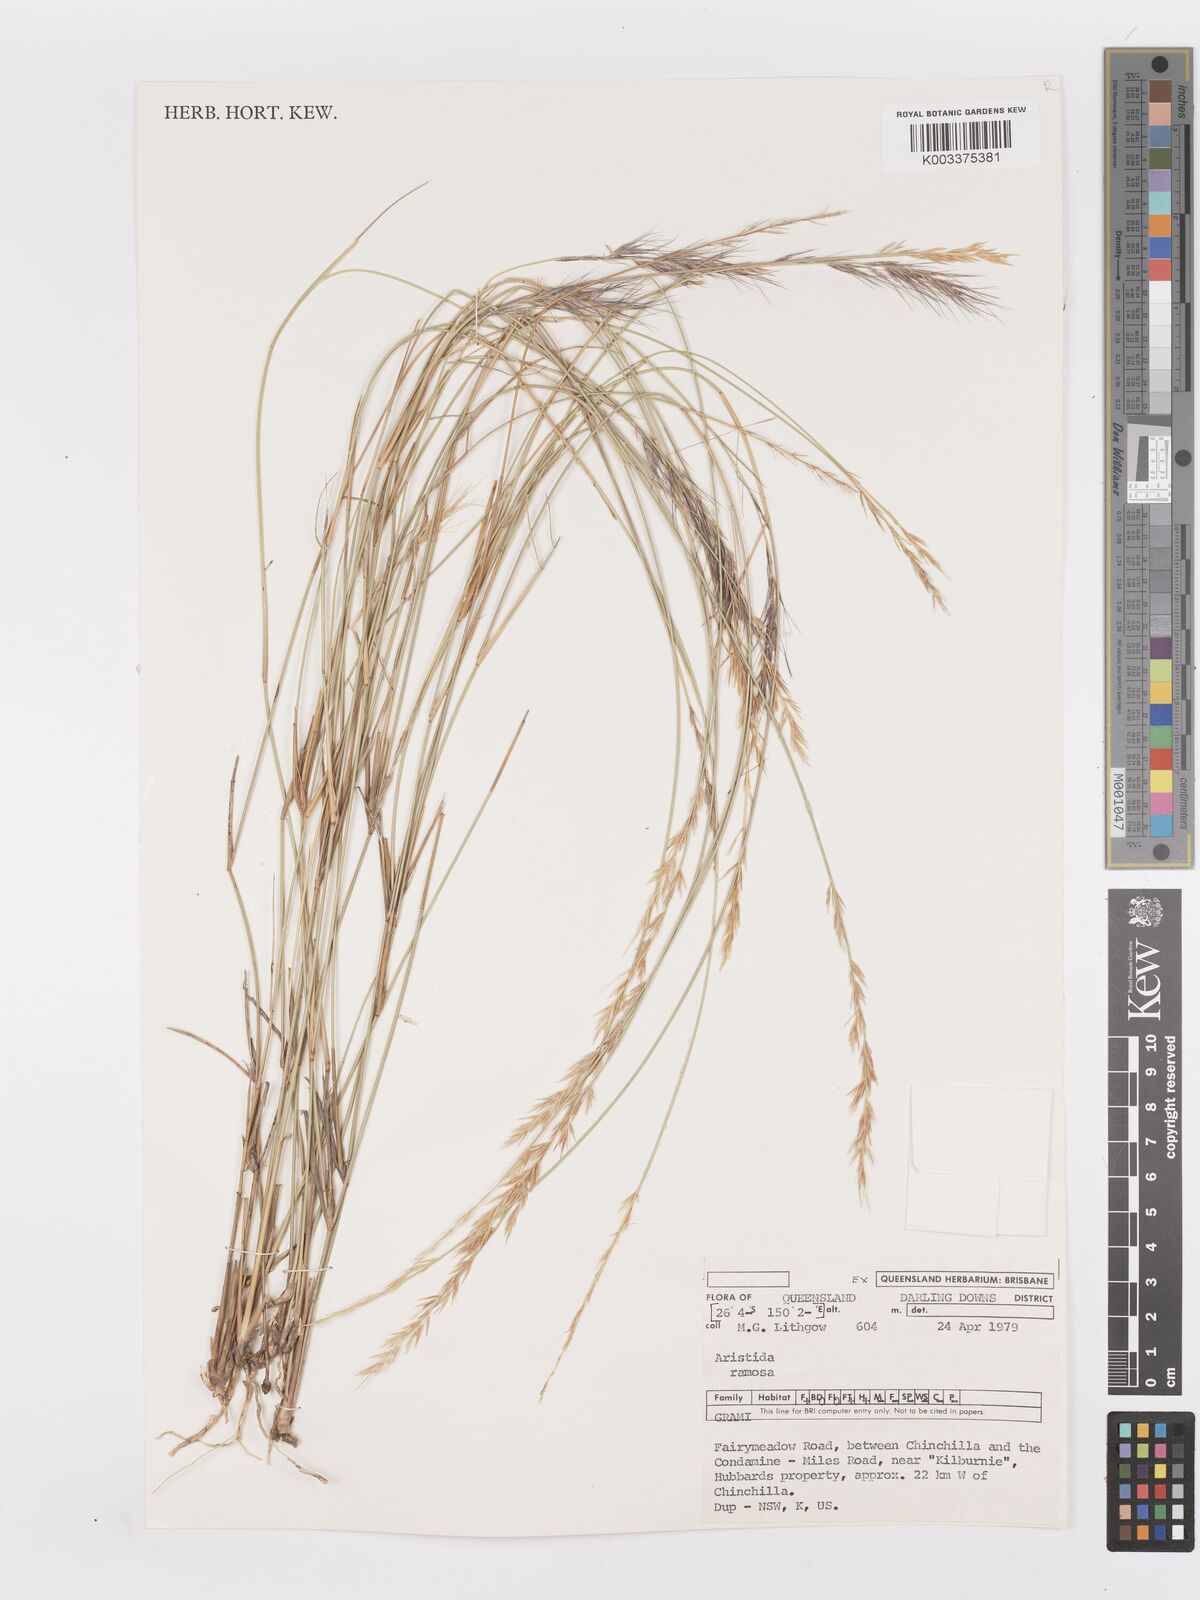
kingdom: Plantae
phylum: Tracheophyta
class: Liliopsida
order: Poales
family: Poaceae
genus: Aristida
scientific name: Aristida ramosa
